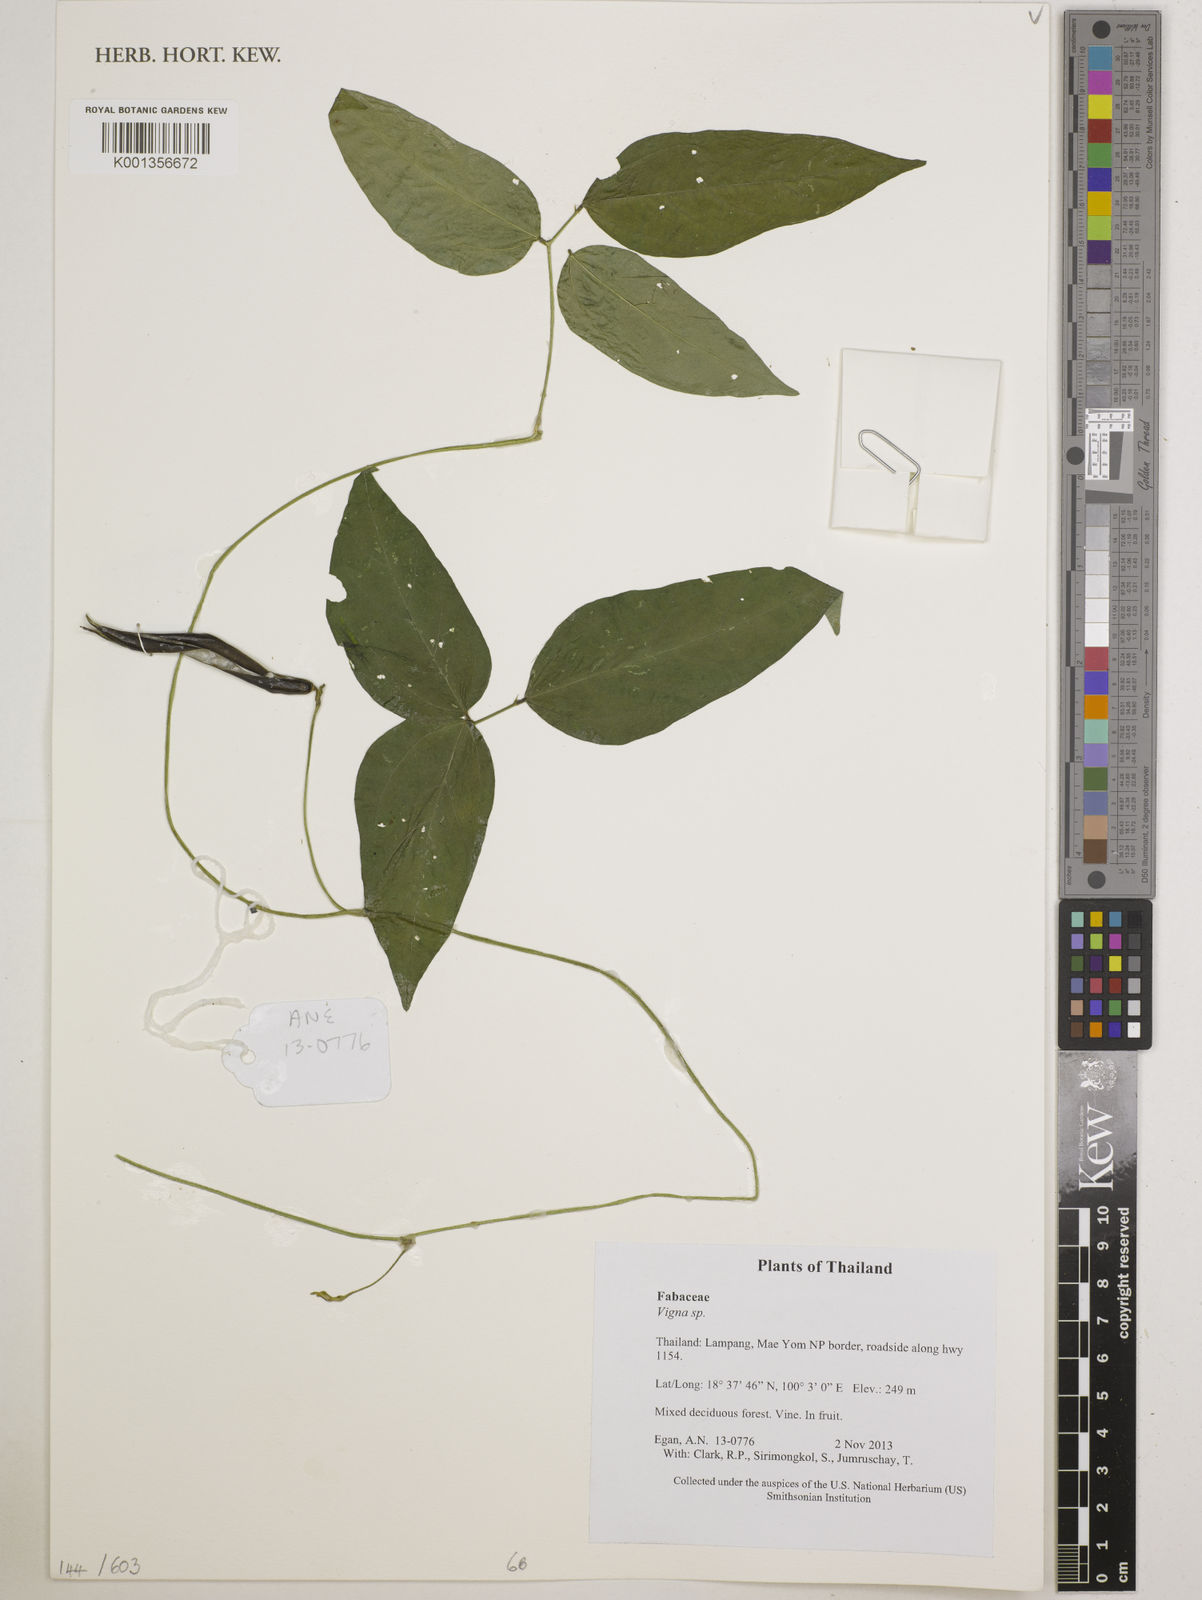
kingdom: Plantae
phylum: Tracheophyta
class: Magnoliopsida
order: Fabales
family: Fabaceae
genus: Vigna
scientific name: Vigna
